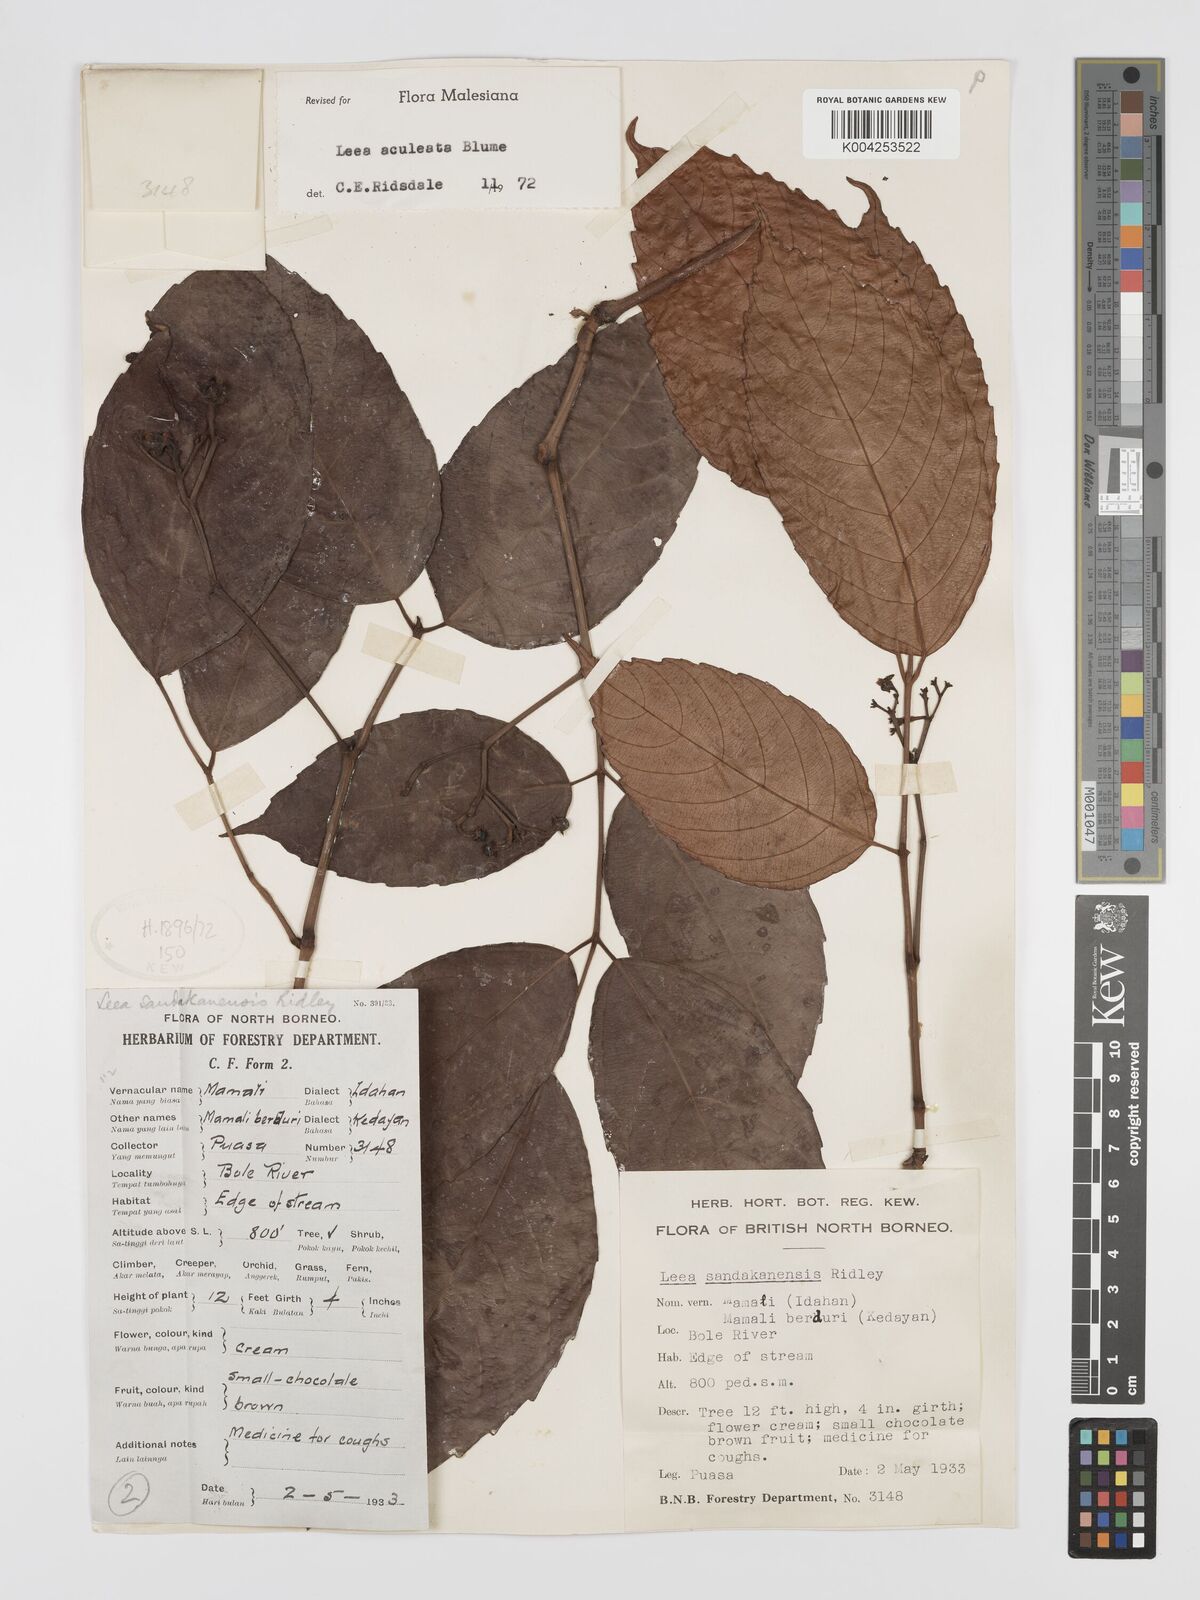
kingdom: Plantae
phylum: Tracheophyta
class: Magnoliopsida
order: Vitales
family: Vitaceae
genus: Leea
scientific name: Leea aculeata
